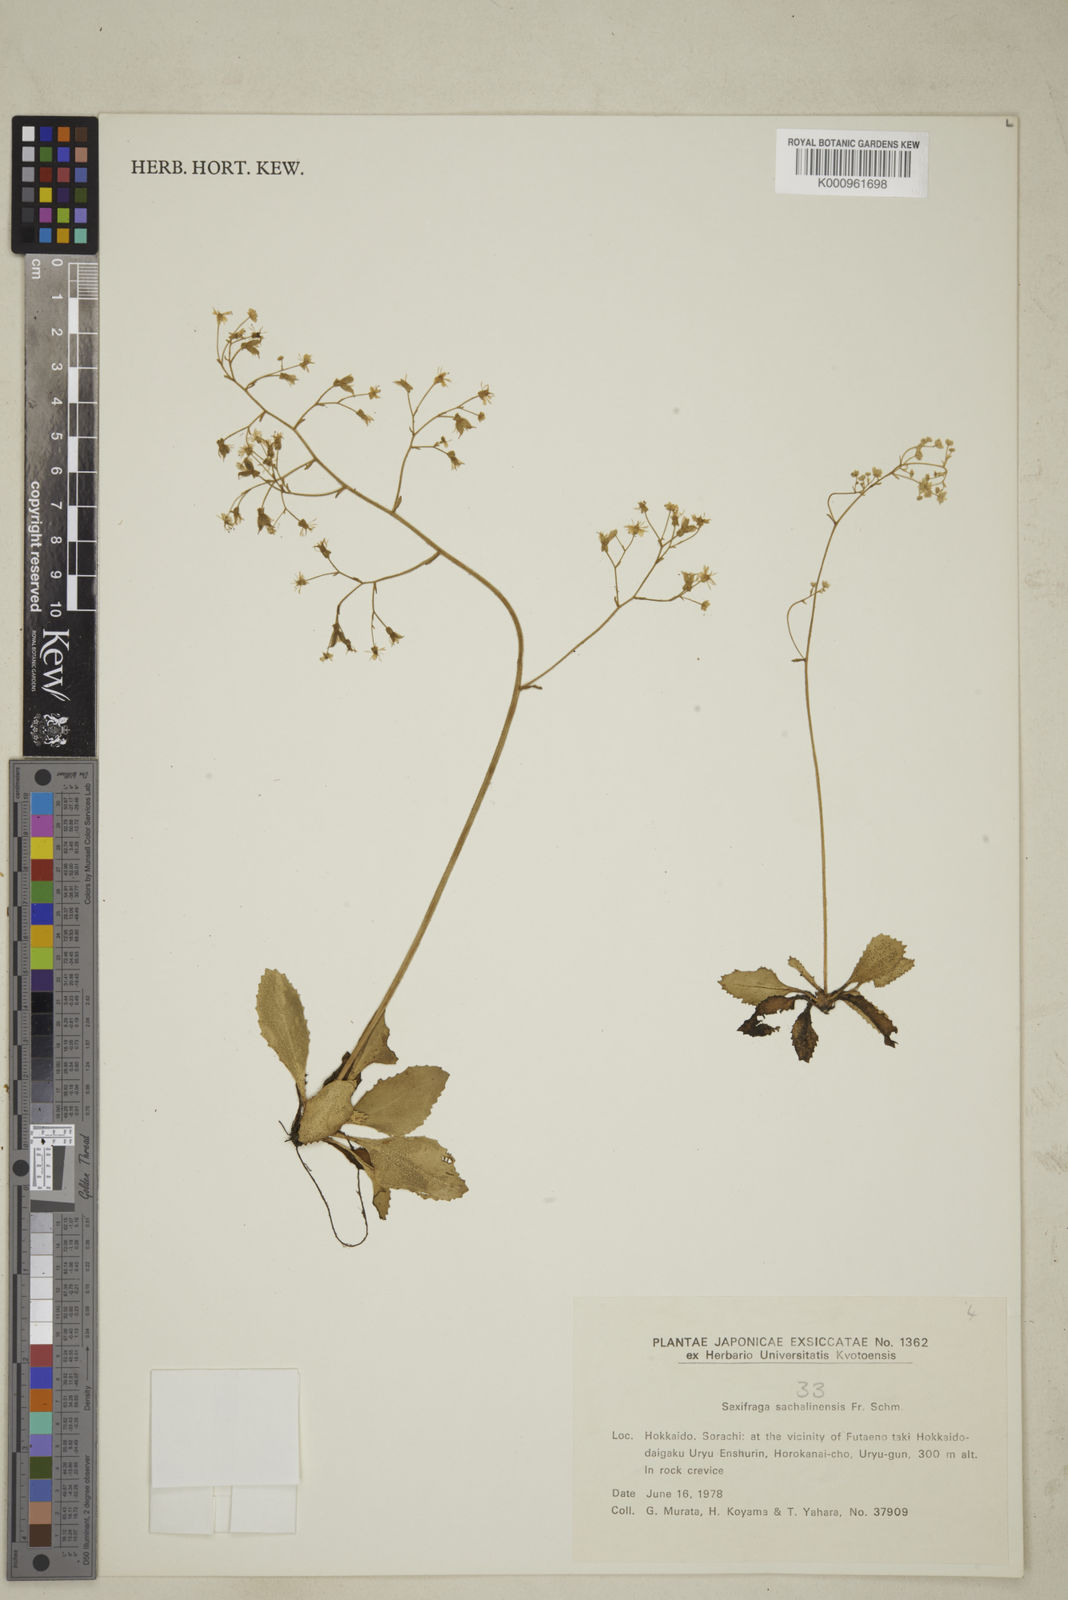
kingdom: Plantae
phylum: Tracheophyta
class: Magnoliopsida
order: Saxifragales
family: Saxifragaceae
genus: Micranthes
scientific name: Micranthes sachalinensis
